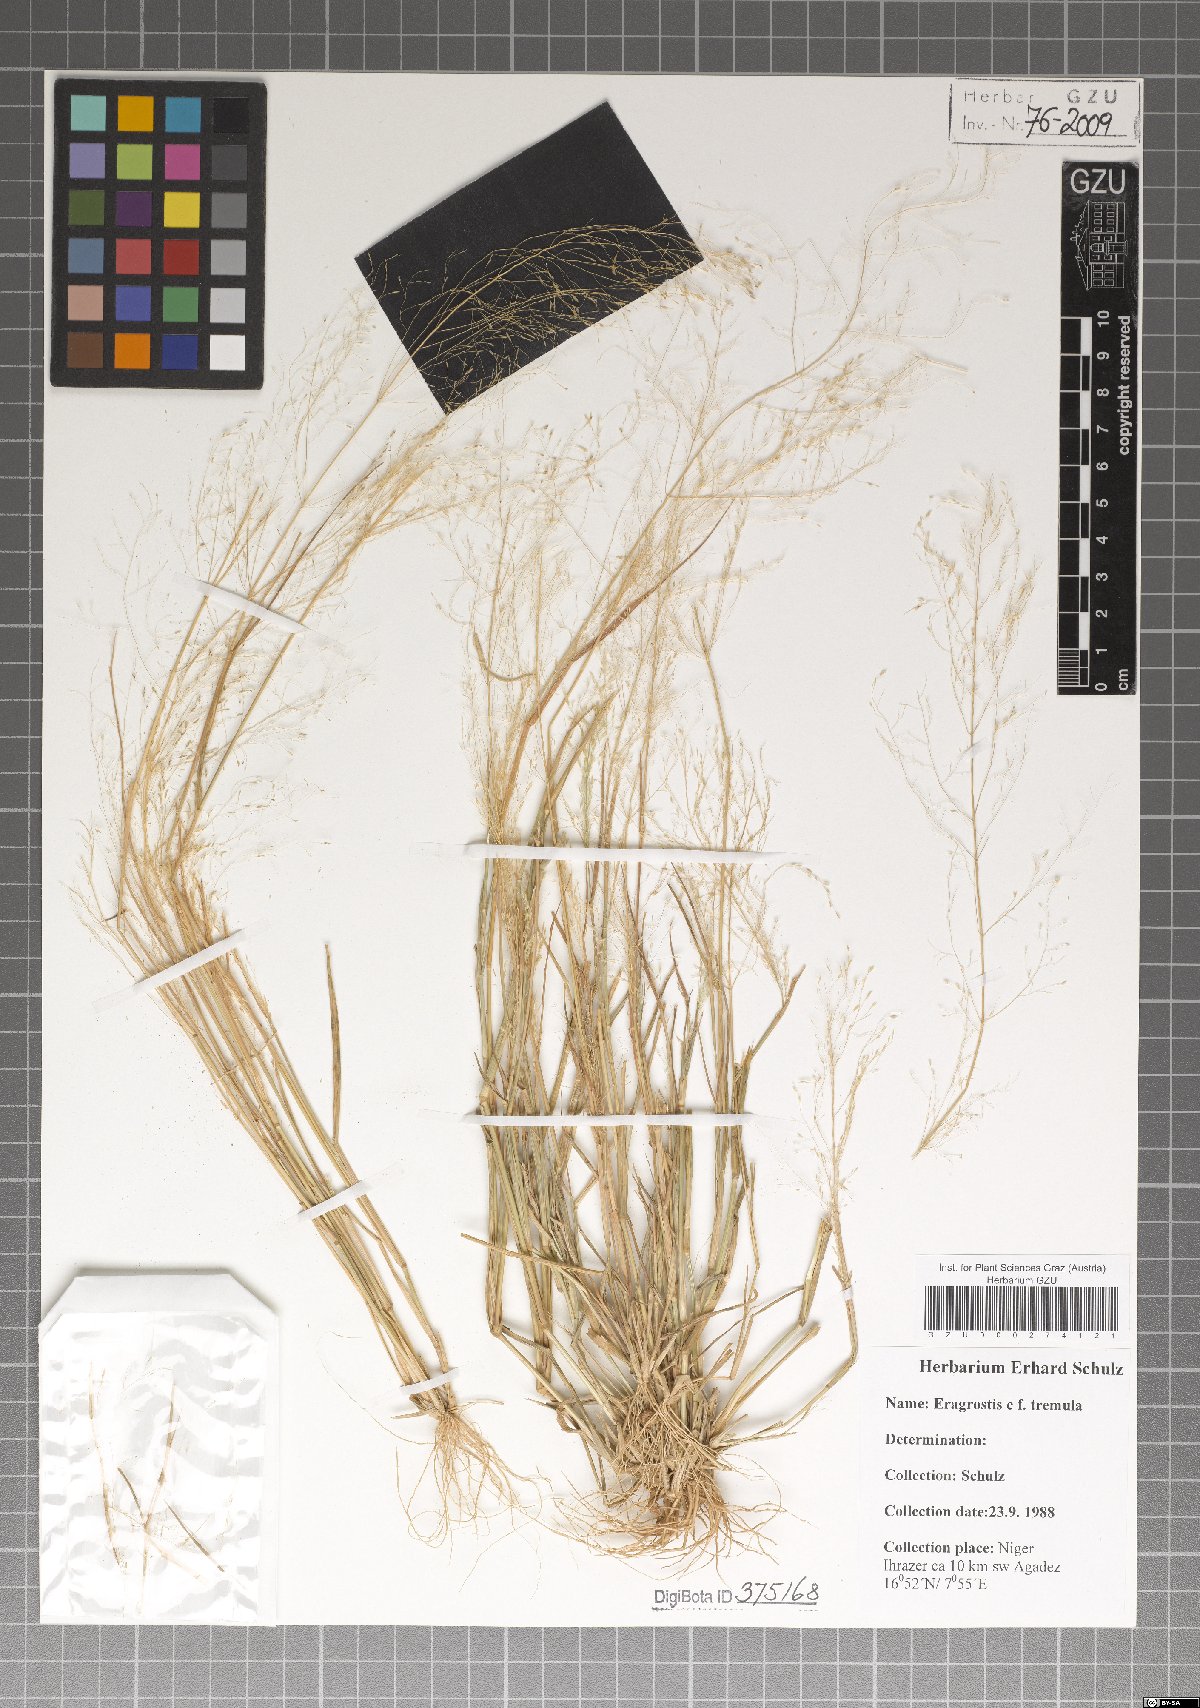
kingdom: Plantae
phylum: Tracheophyta
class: Liliopsida
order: Poales
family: Poaceae
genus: Eragrostis
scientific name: Eragrostis tremula
